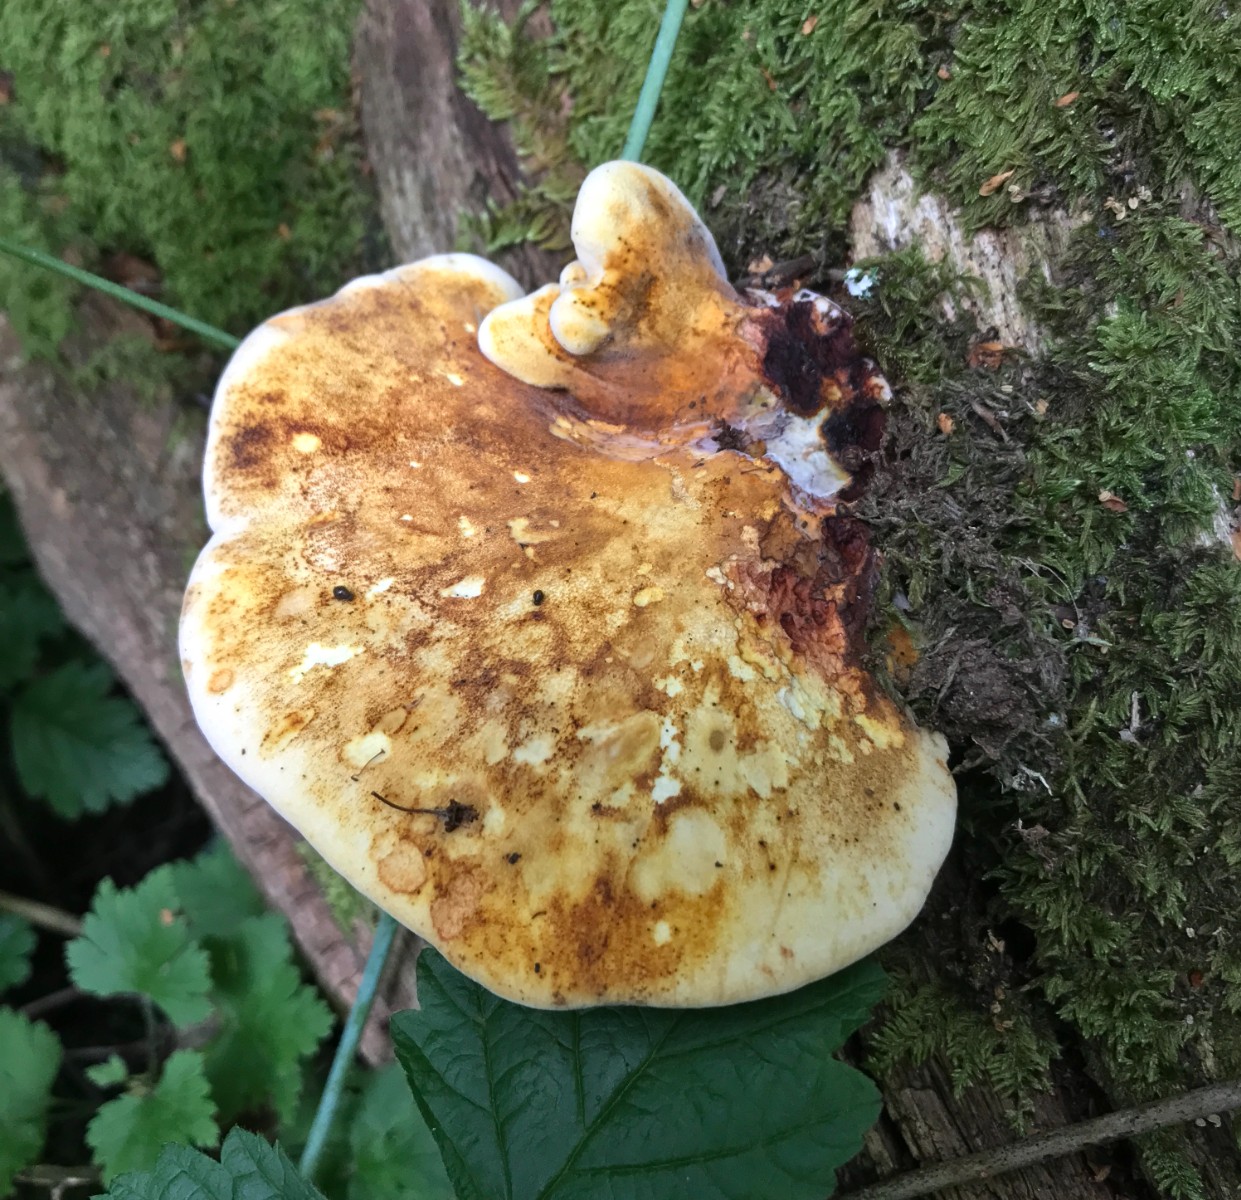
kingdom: Fungi
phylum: Basidiomycota
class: Agaricomycetes
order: Polyporales
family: Fomitopsidaceae
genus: Buglossoporus
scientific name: Buglossoporus quercinus
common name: egetunge
